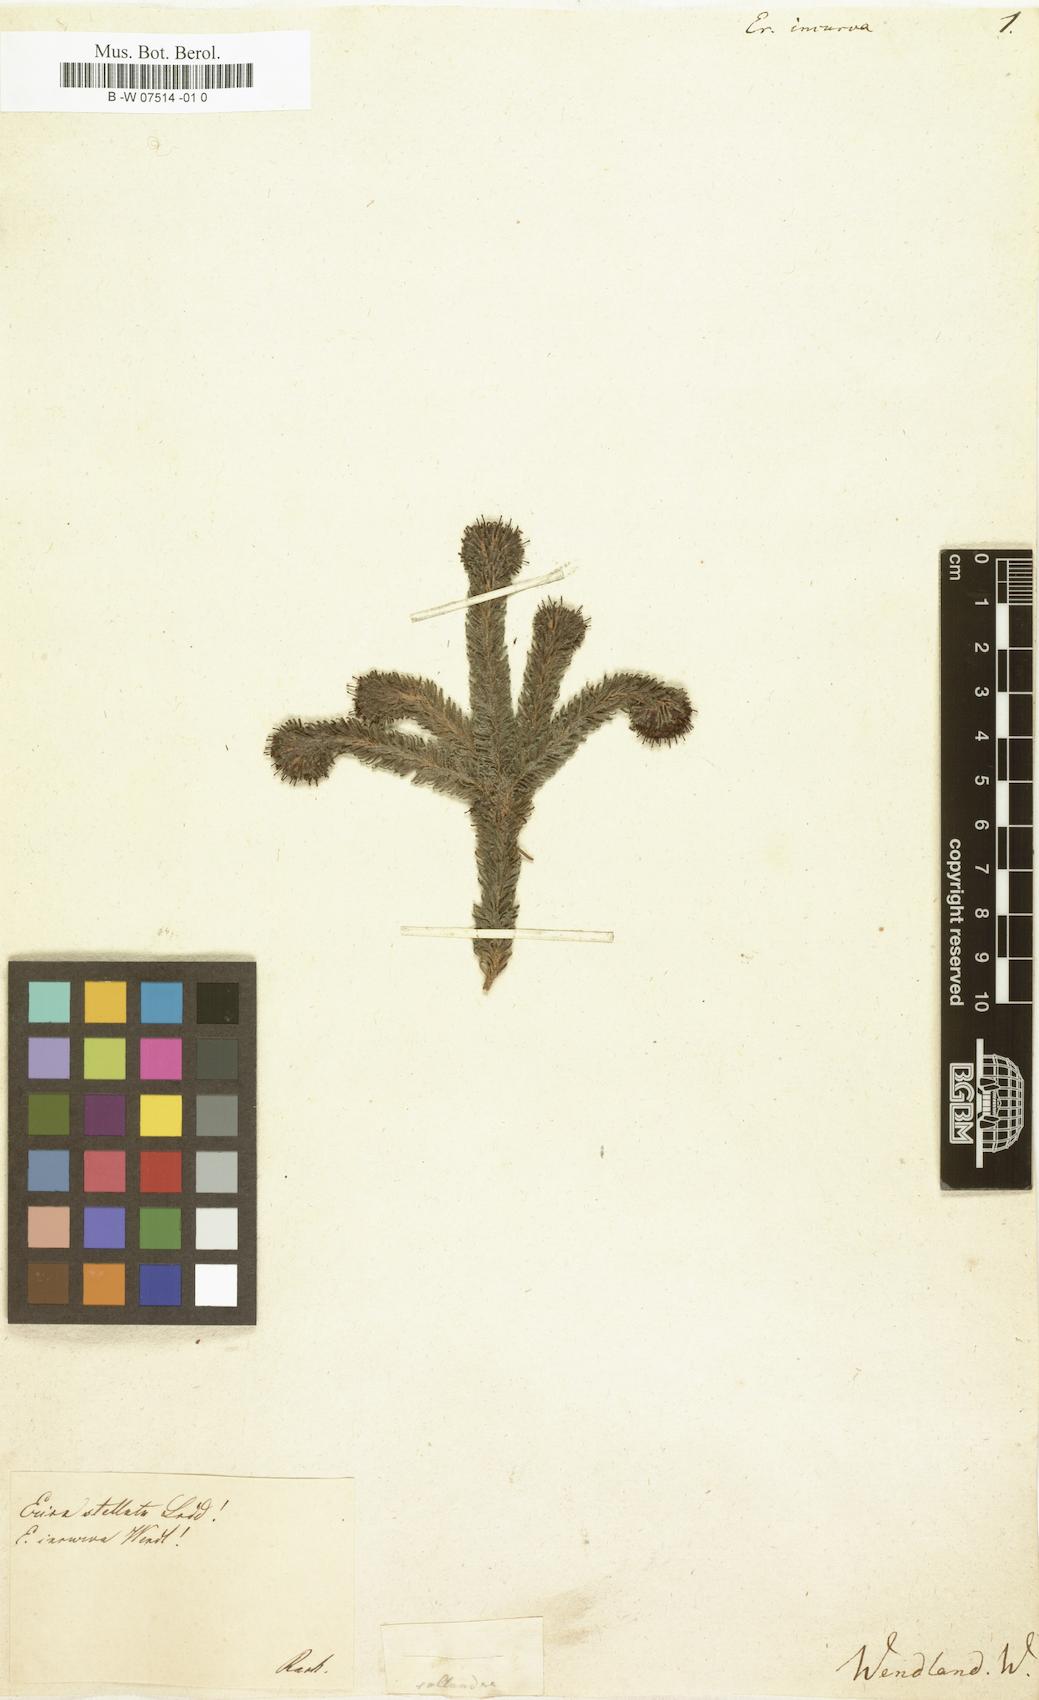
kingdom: Plantae
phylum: Tracheophyta
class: Magnoliopsida
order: Ericales
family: Ericaceae
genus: Erica
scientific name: Erica
